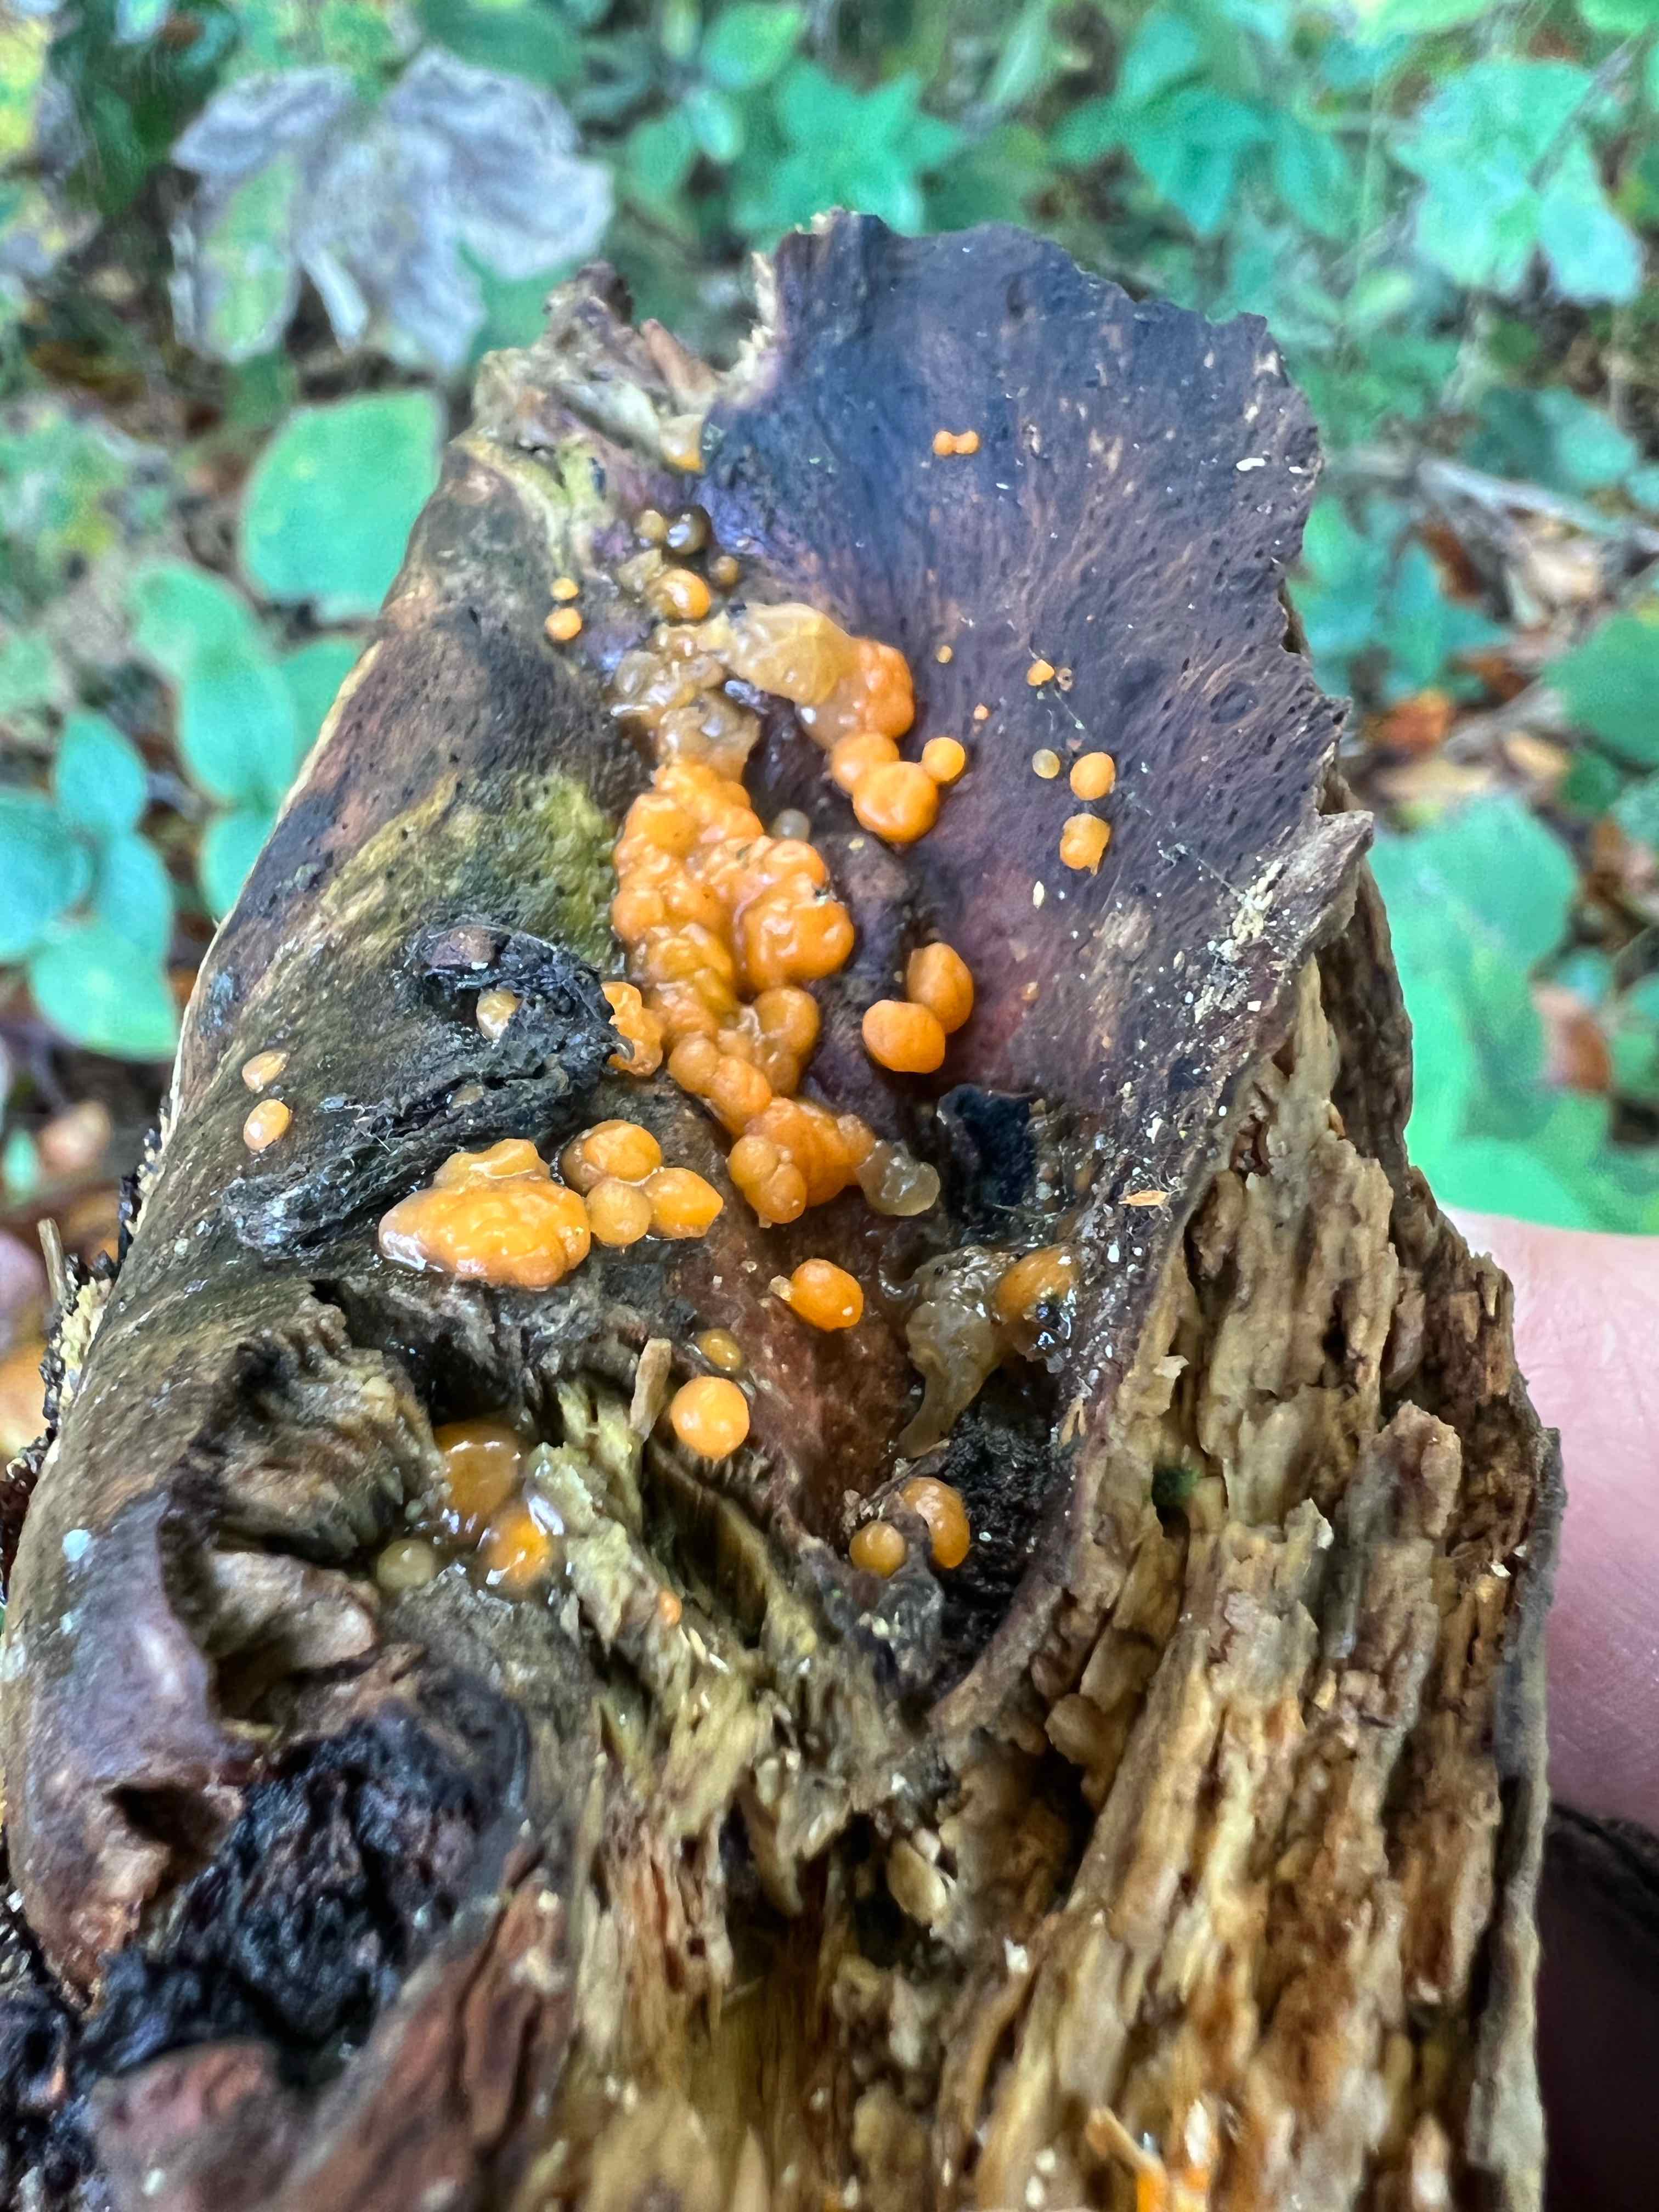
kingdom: Fungi
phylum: Basidiomycota
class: Dacrymycetes
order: Dacrymycetales
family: Dacrymycetaceae
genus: Dacrymyces
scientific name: Dacrymyces
